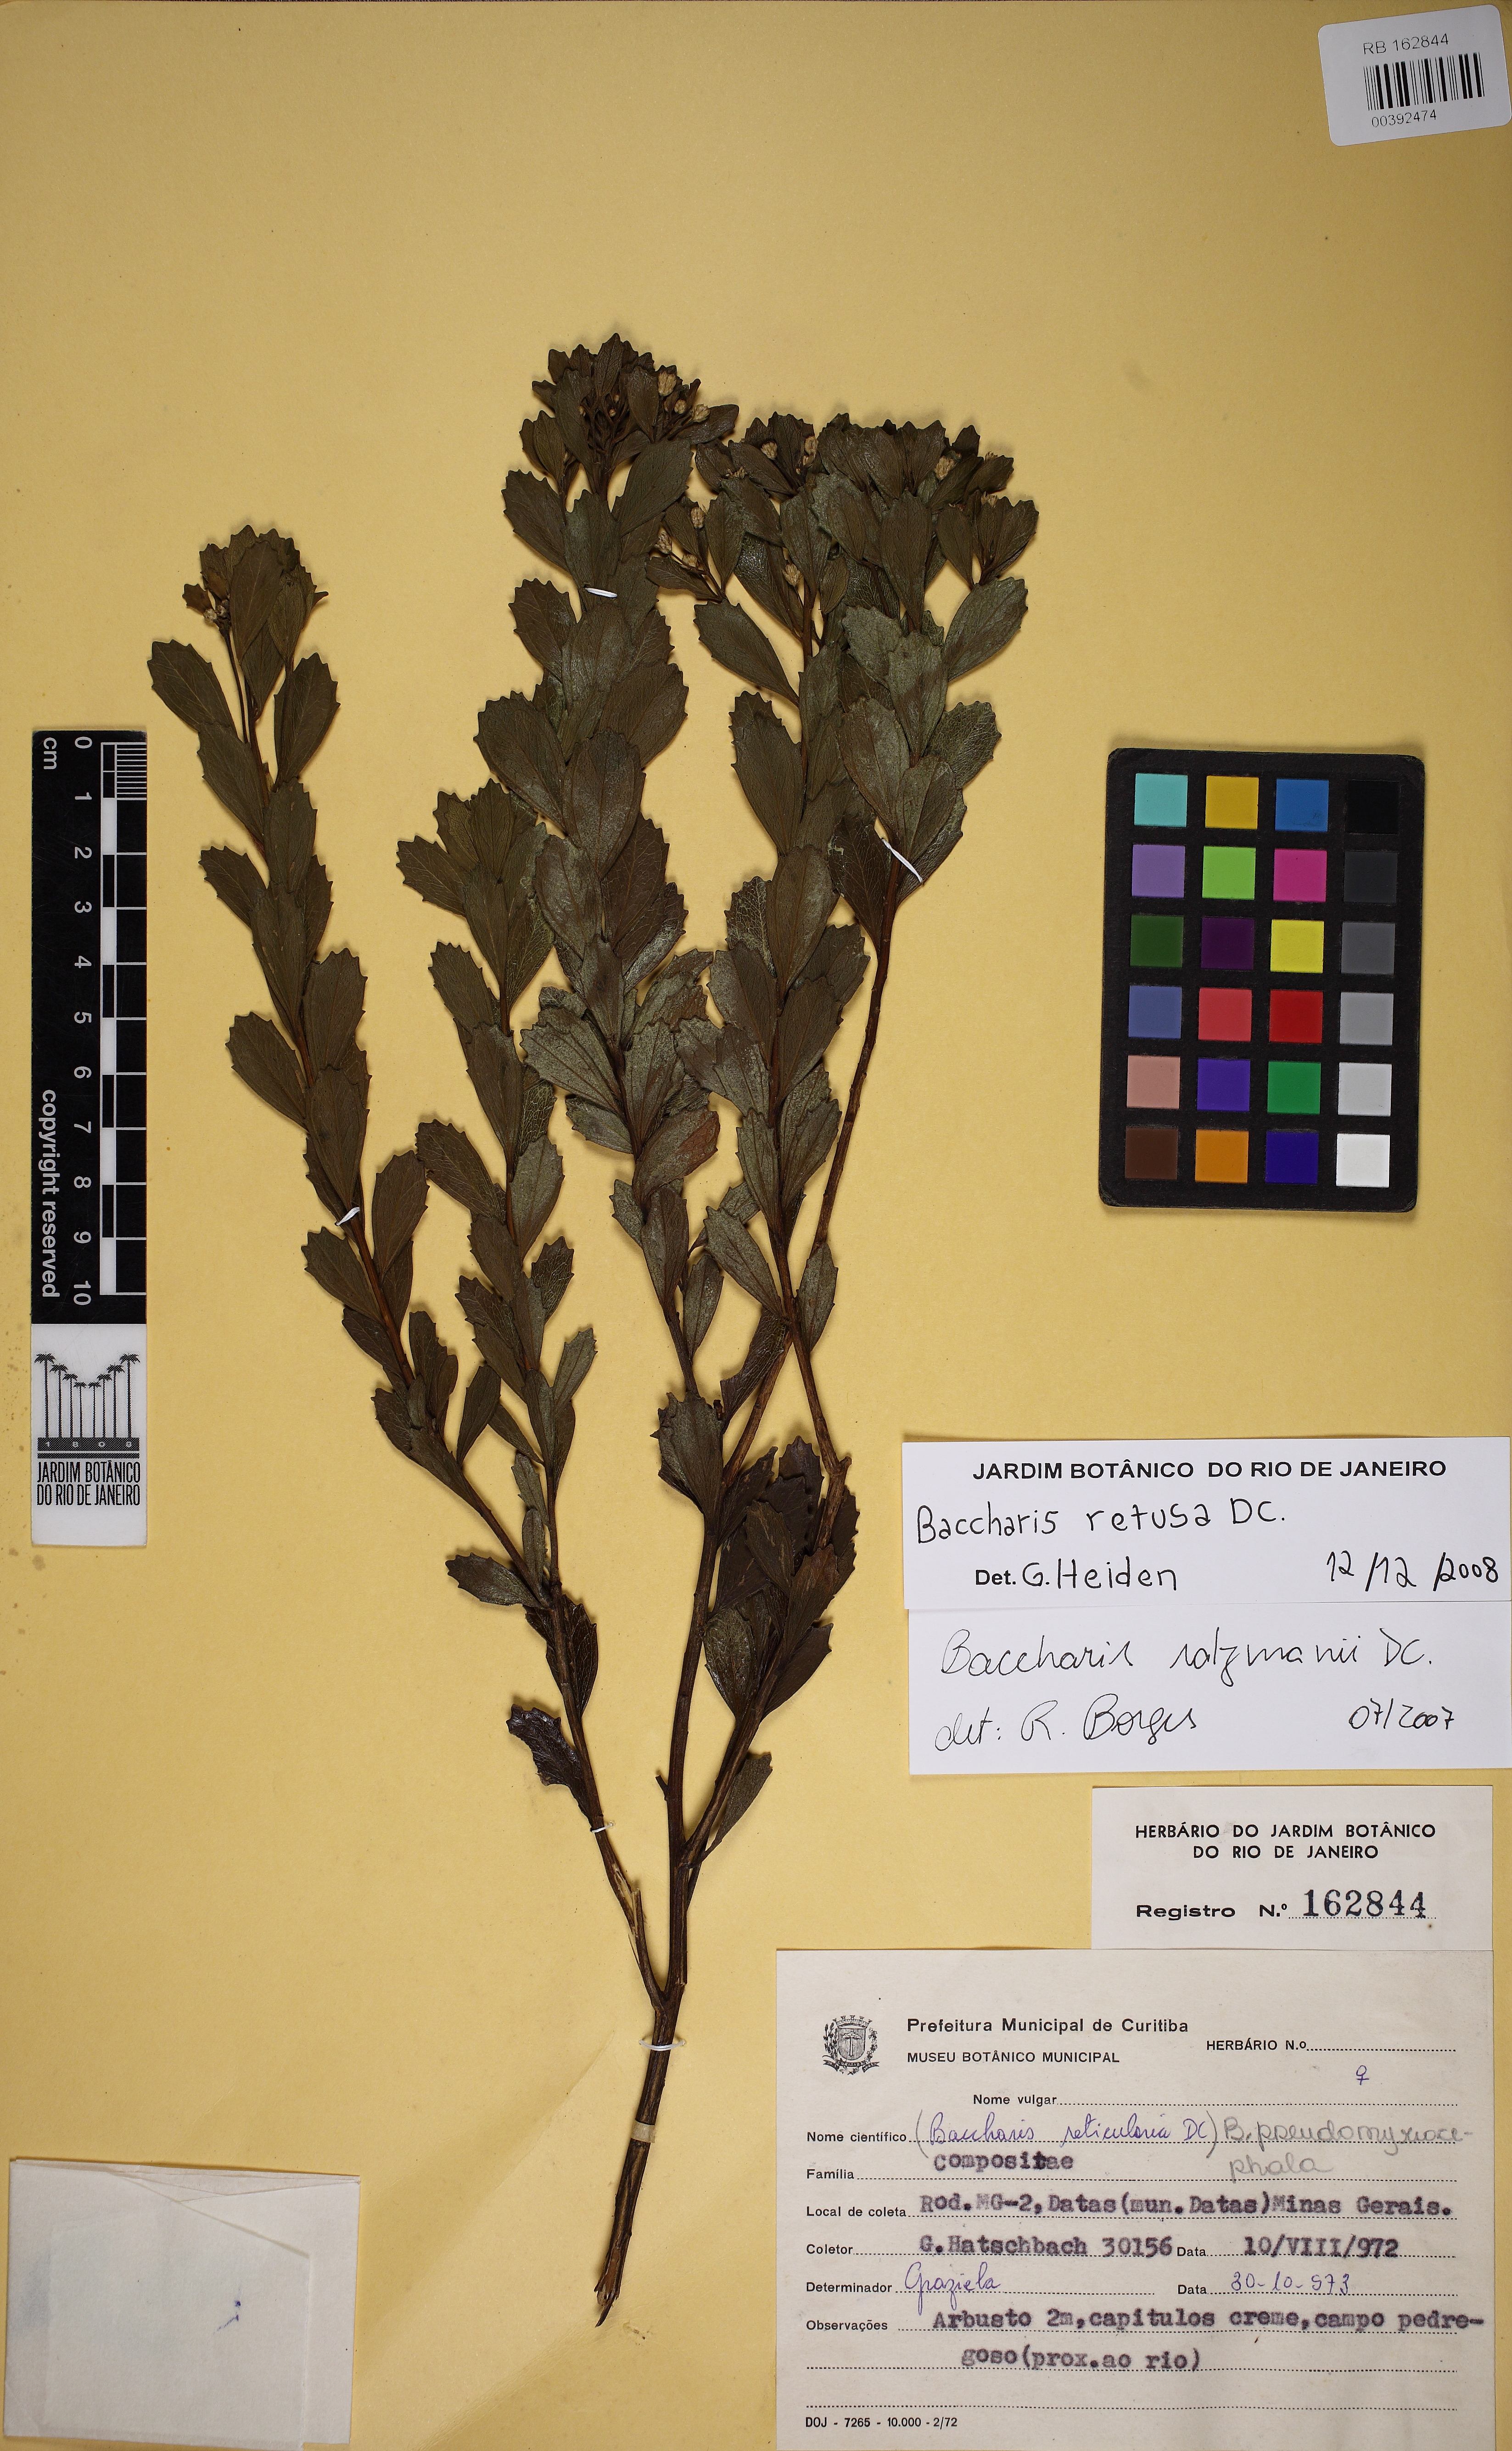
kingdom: Plantae
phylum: Tracheophyta
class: Magnoliopsida
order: Asterales
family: Asteraceae
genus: Baccharis
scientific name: Baccharis retusa
